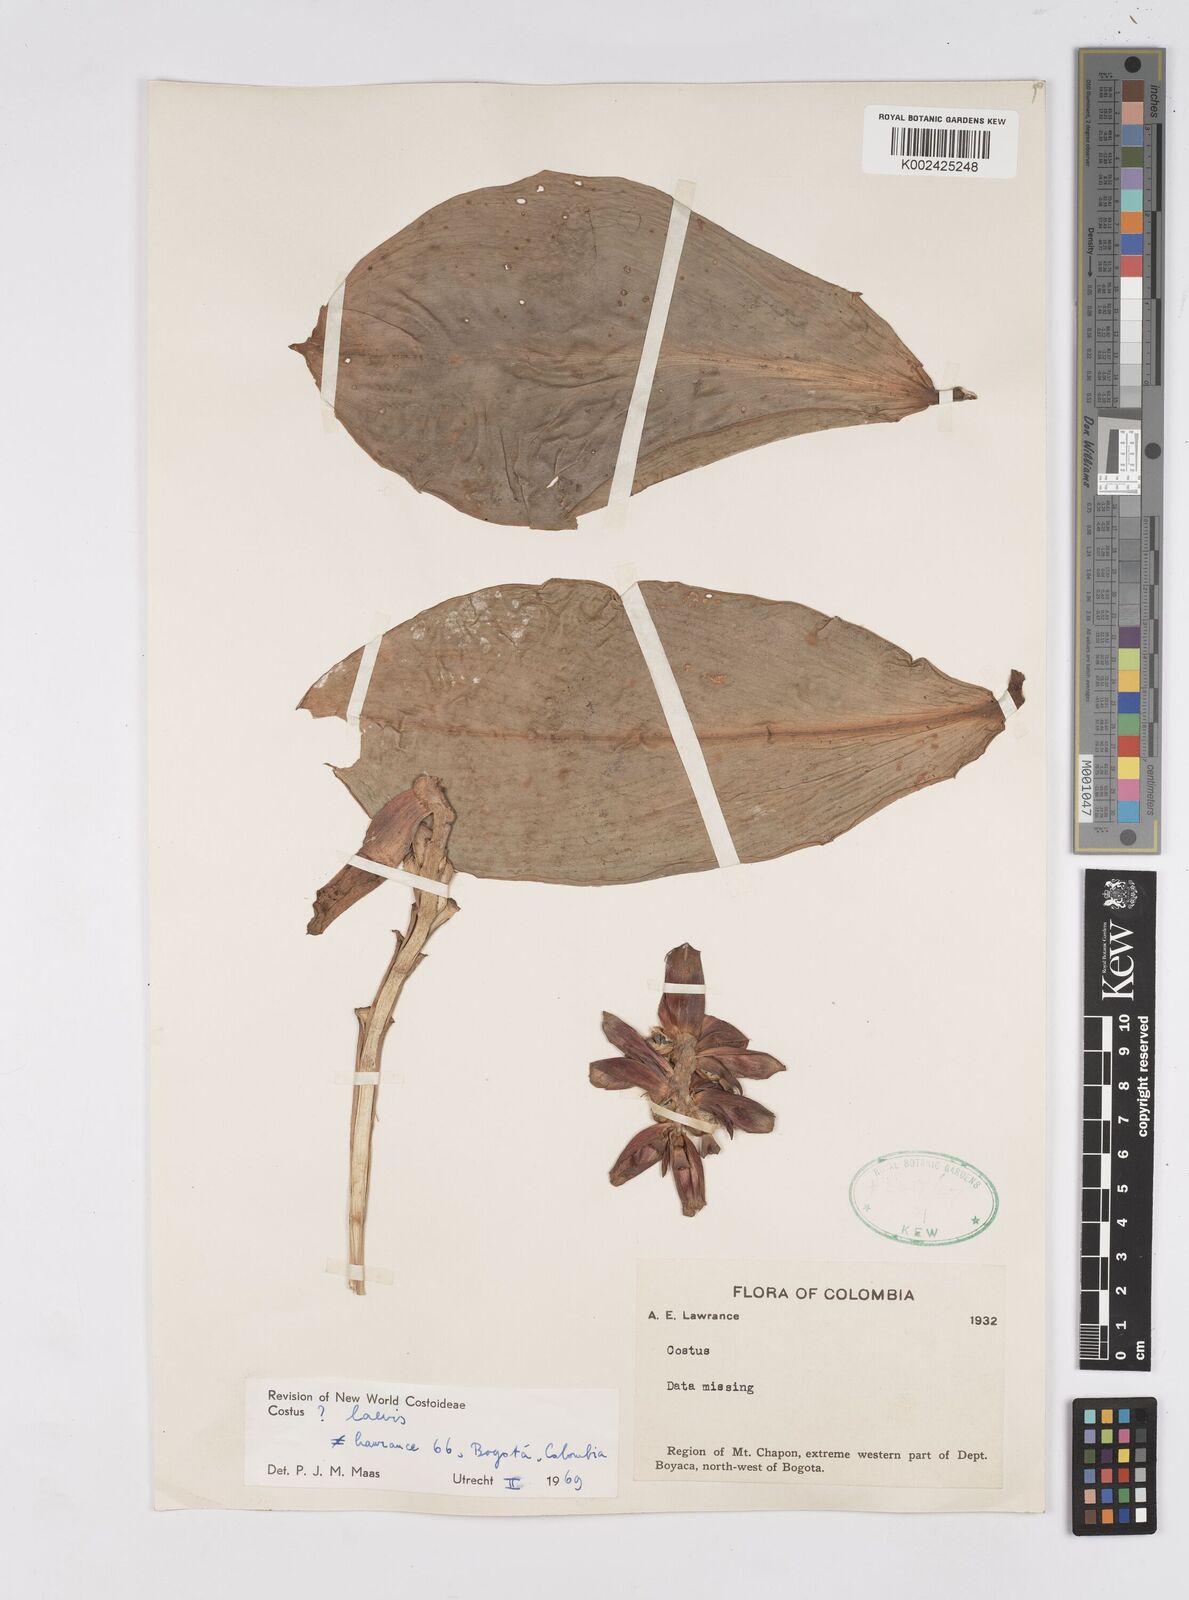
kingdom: Plantae
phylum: Tracheophyta
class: Liliopsida
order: Zingiberales
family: Costaceae
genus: Costus
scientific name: Costus laevis
